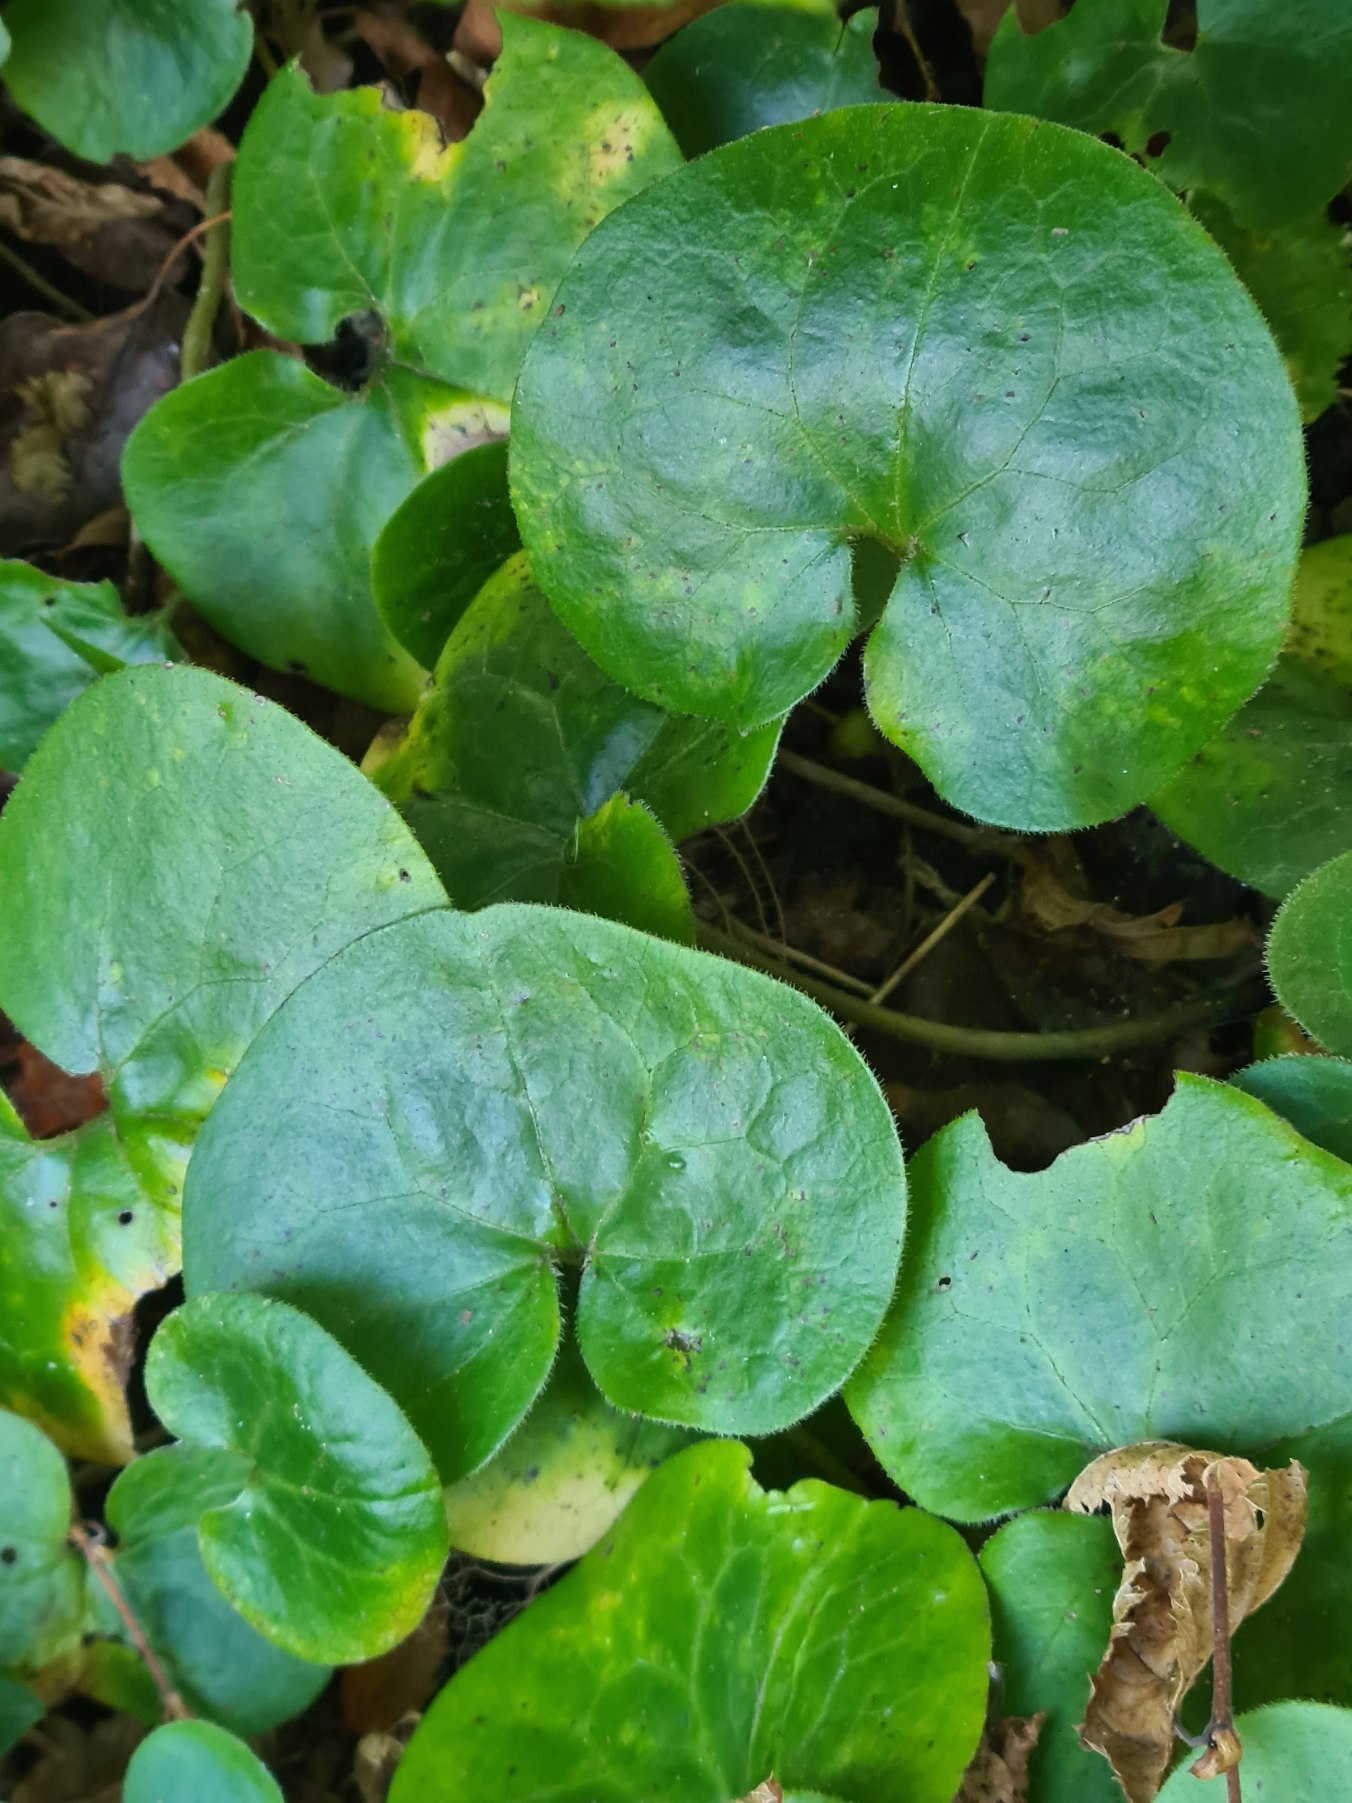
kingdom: Plantae
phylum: Tracheophyta
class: Magnoliopsida
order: Piperales
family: Aristolochiaceae
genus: Asarum
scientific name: Asarum europaeum
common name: Hasselurt
